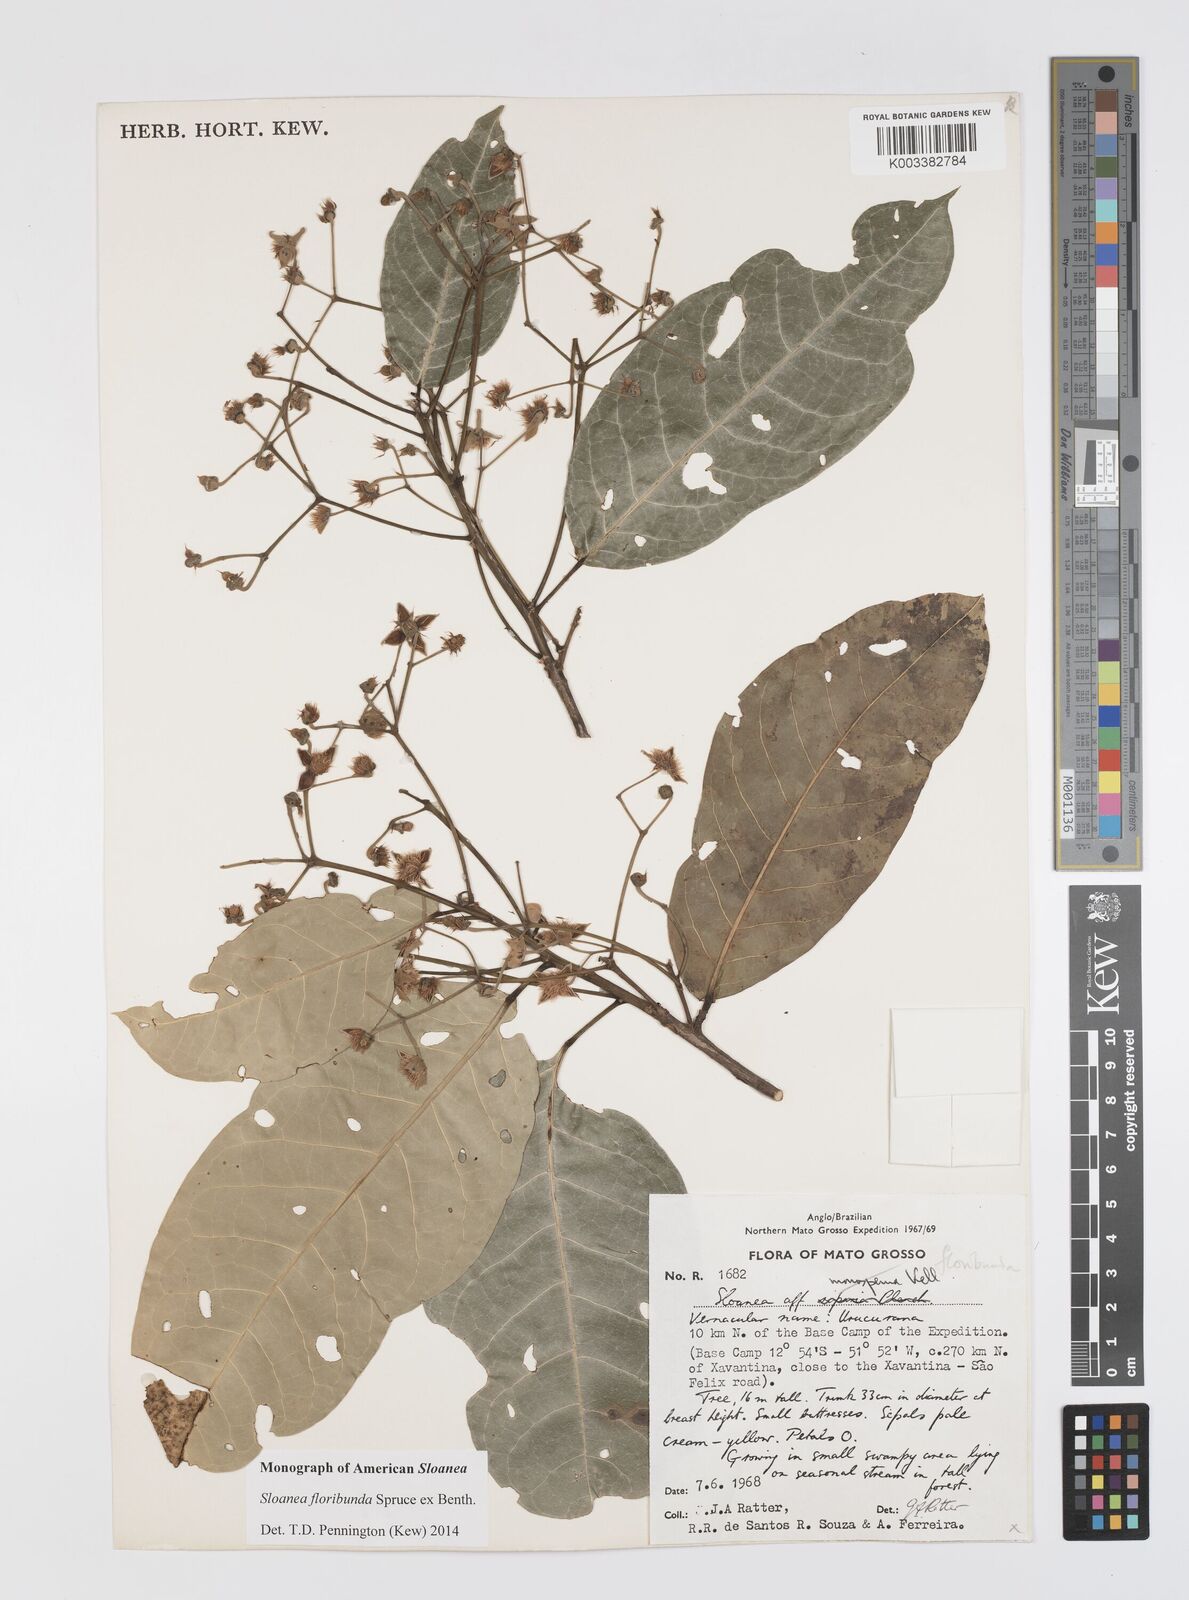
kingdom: Plantae
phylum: Tracheophyta
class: Magnoliopsida
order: Oxalidales
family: Elaeocarpaceae
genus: Sloanea
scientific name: Sloanea floribunda
